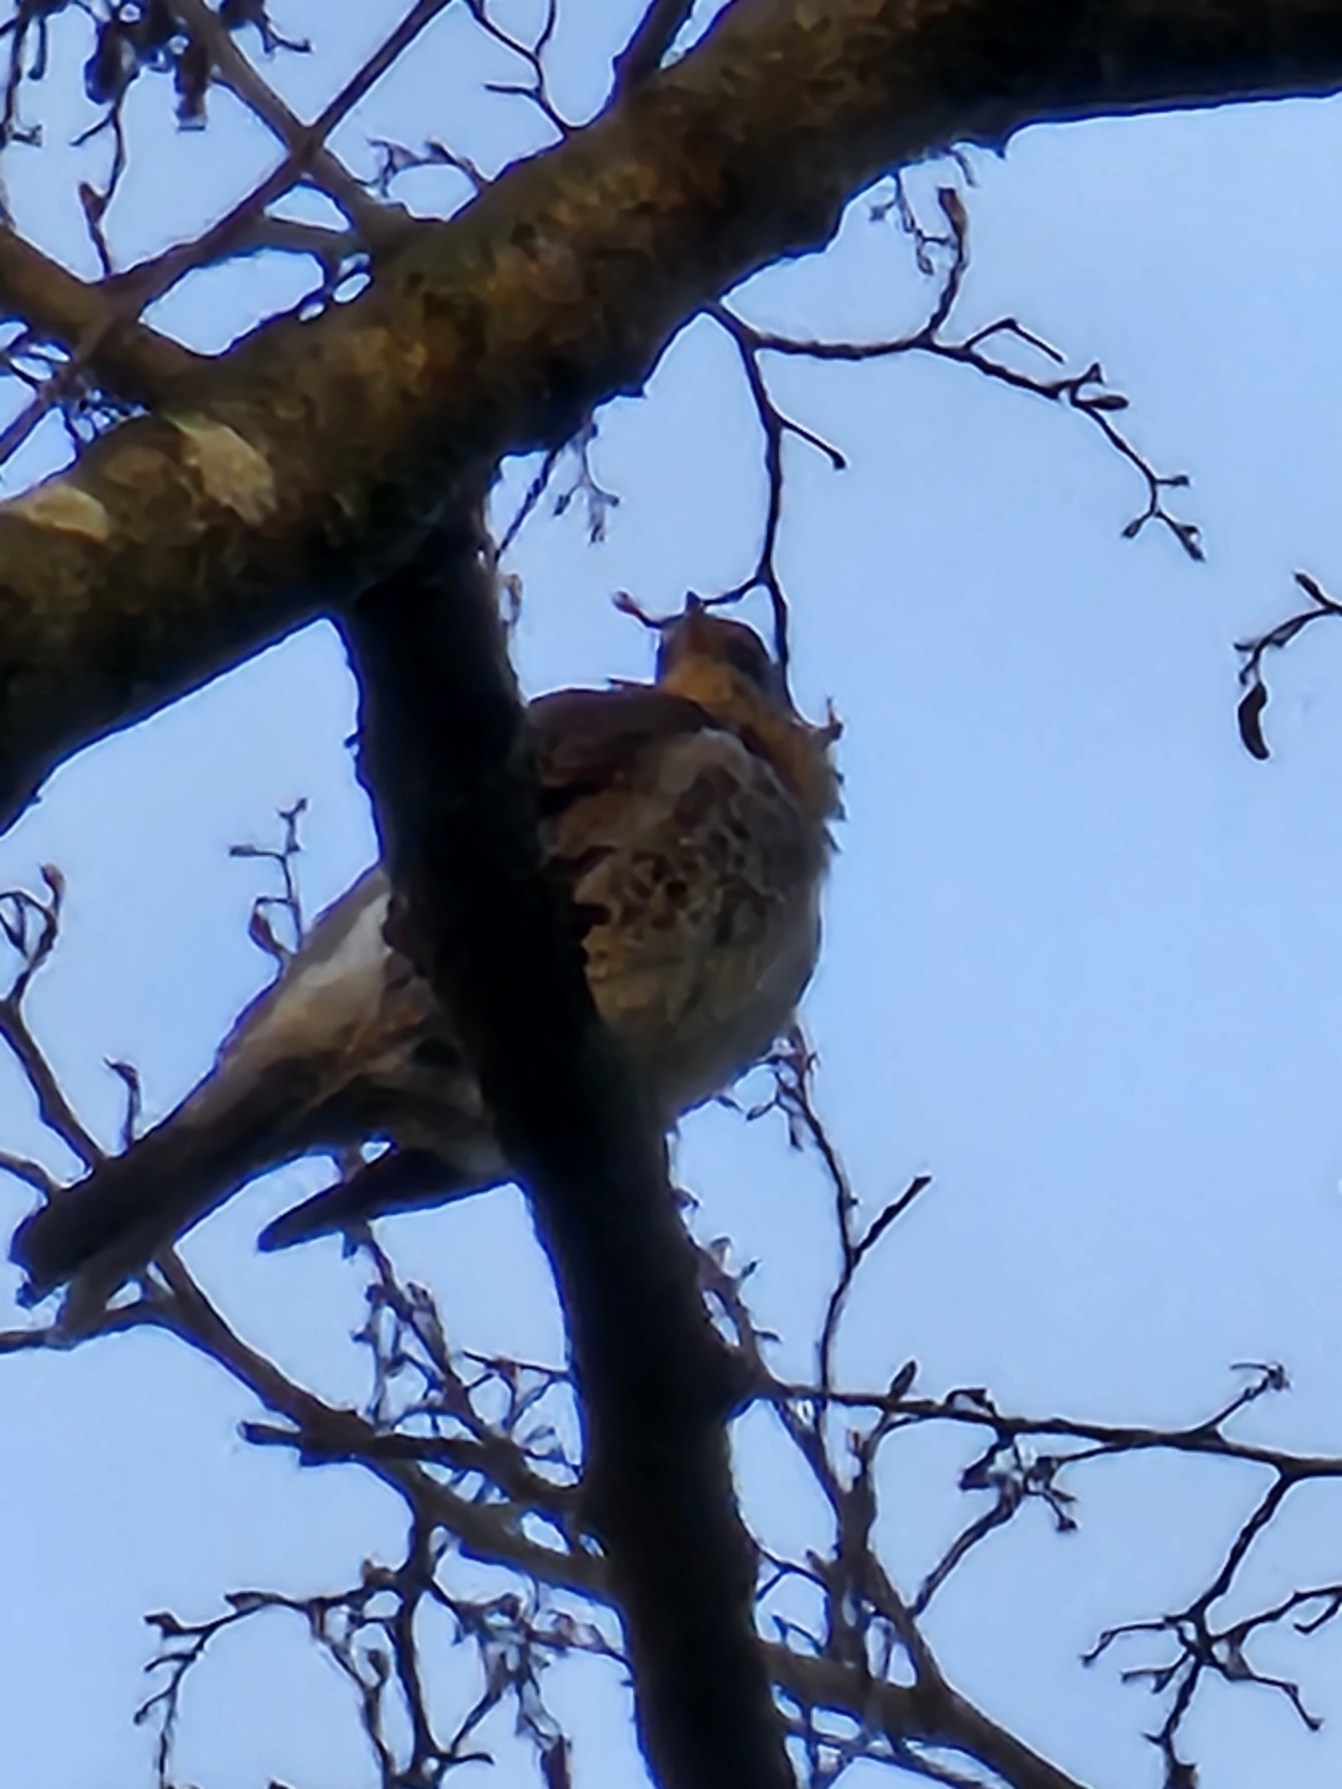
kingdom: Animalia
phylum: Chordata
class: Aves
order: Passeriformes
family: Turdidae
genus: Turdus
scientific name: Turdus pilaris
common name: Sjagger
